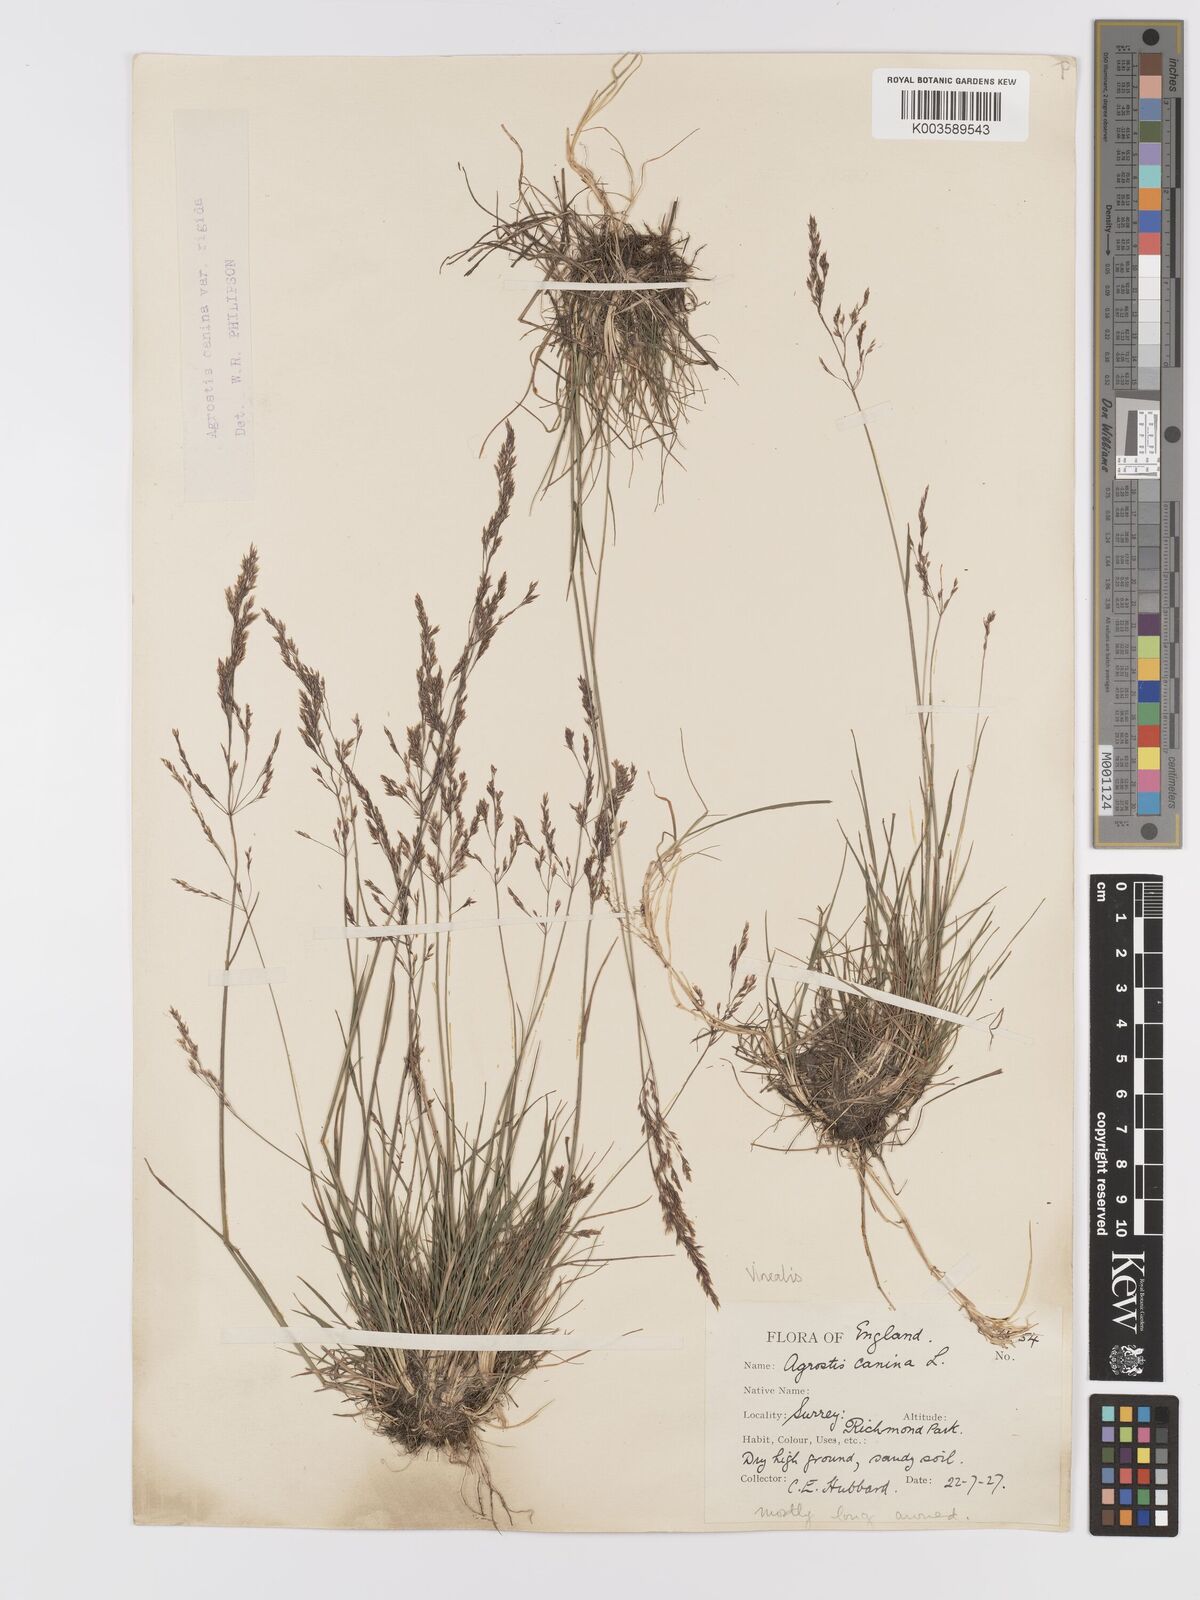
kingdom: Plantae
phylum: Tracheophyta
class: Liliopsida
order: Poales
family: Poaceae
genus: Agrostis
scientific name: Agrostis
